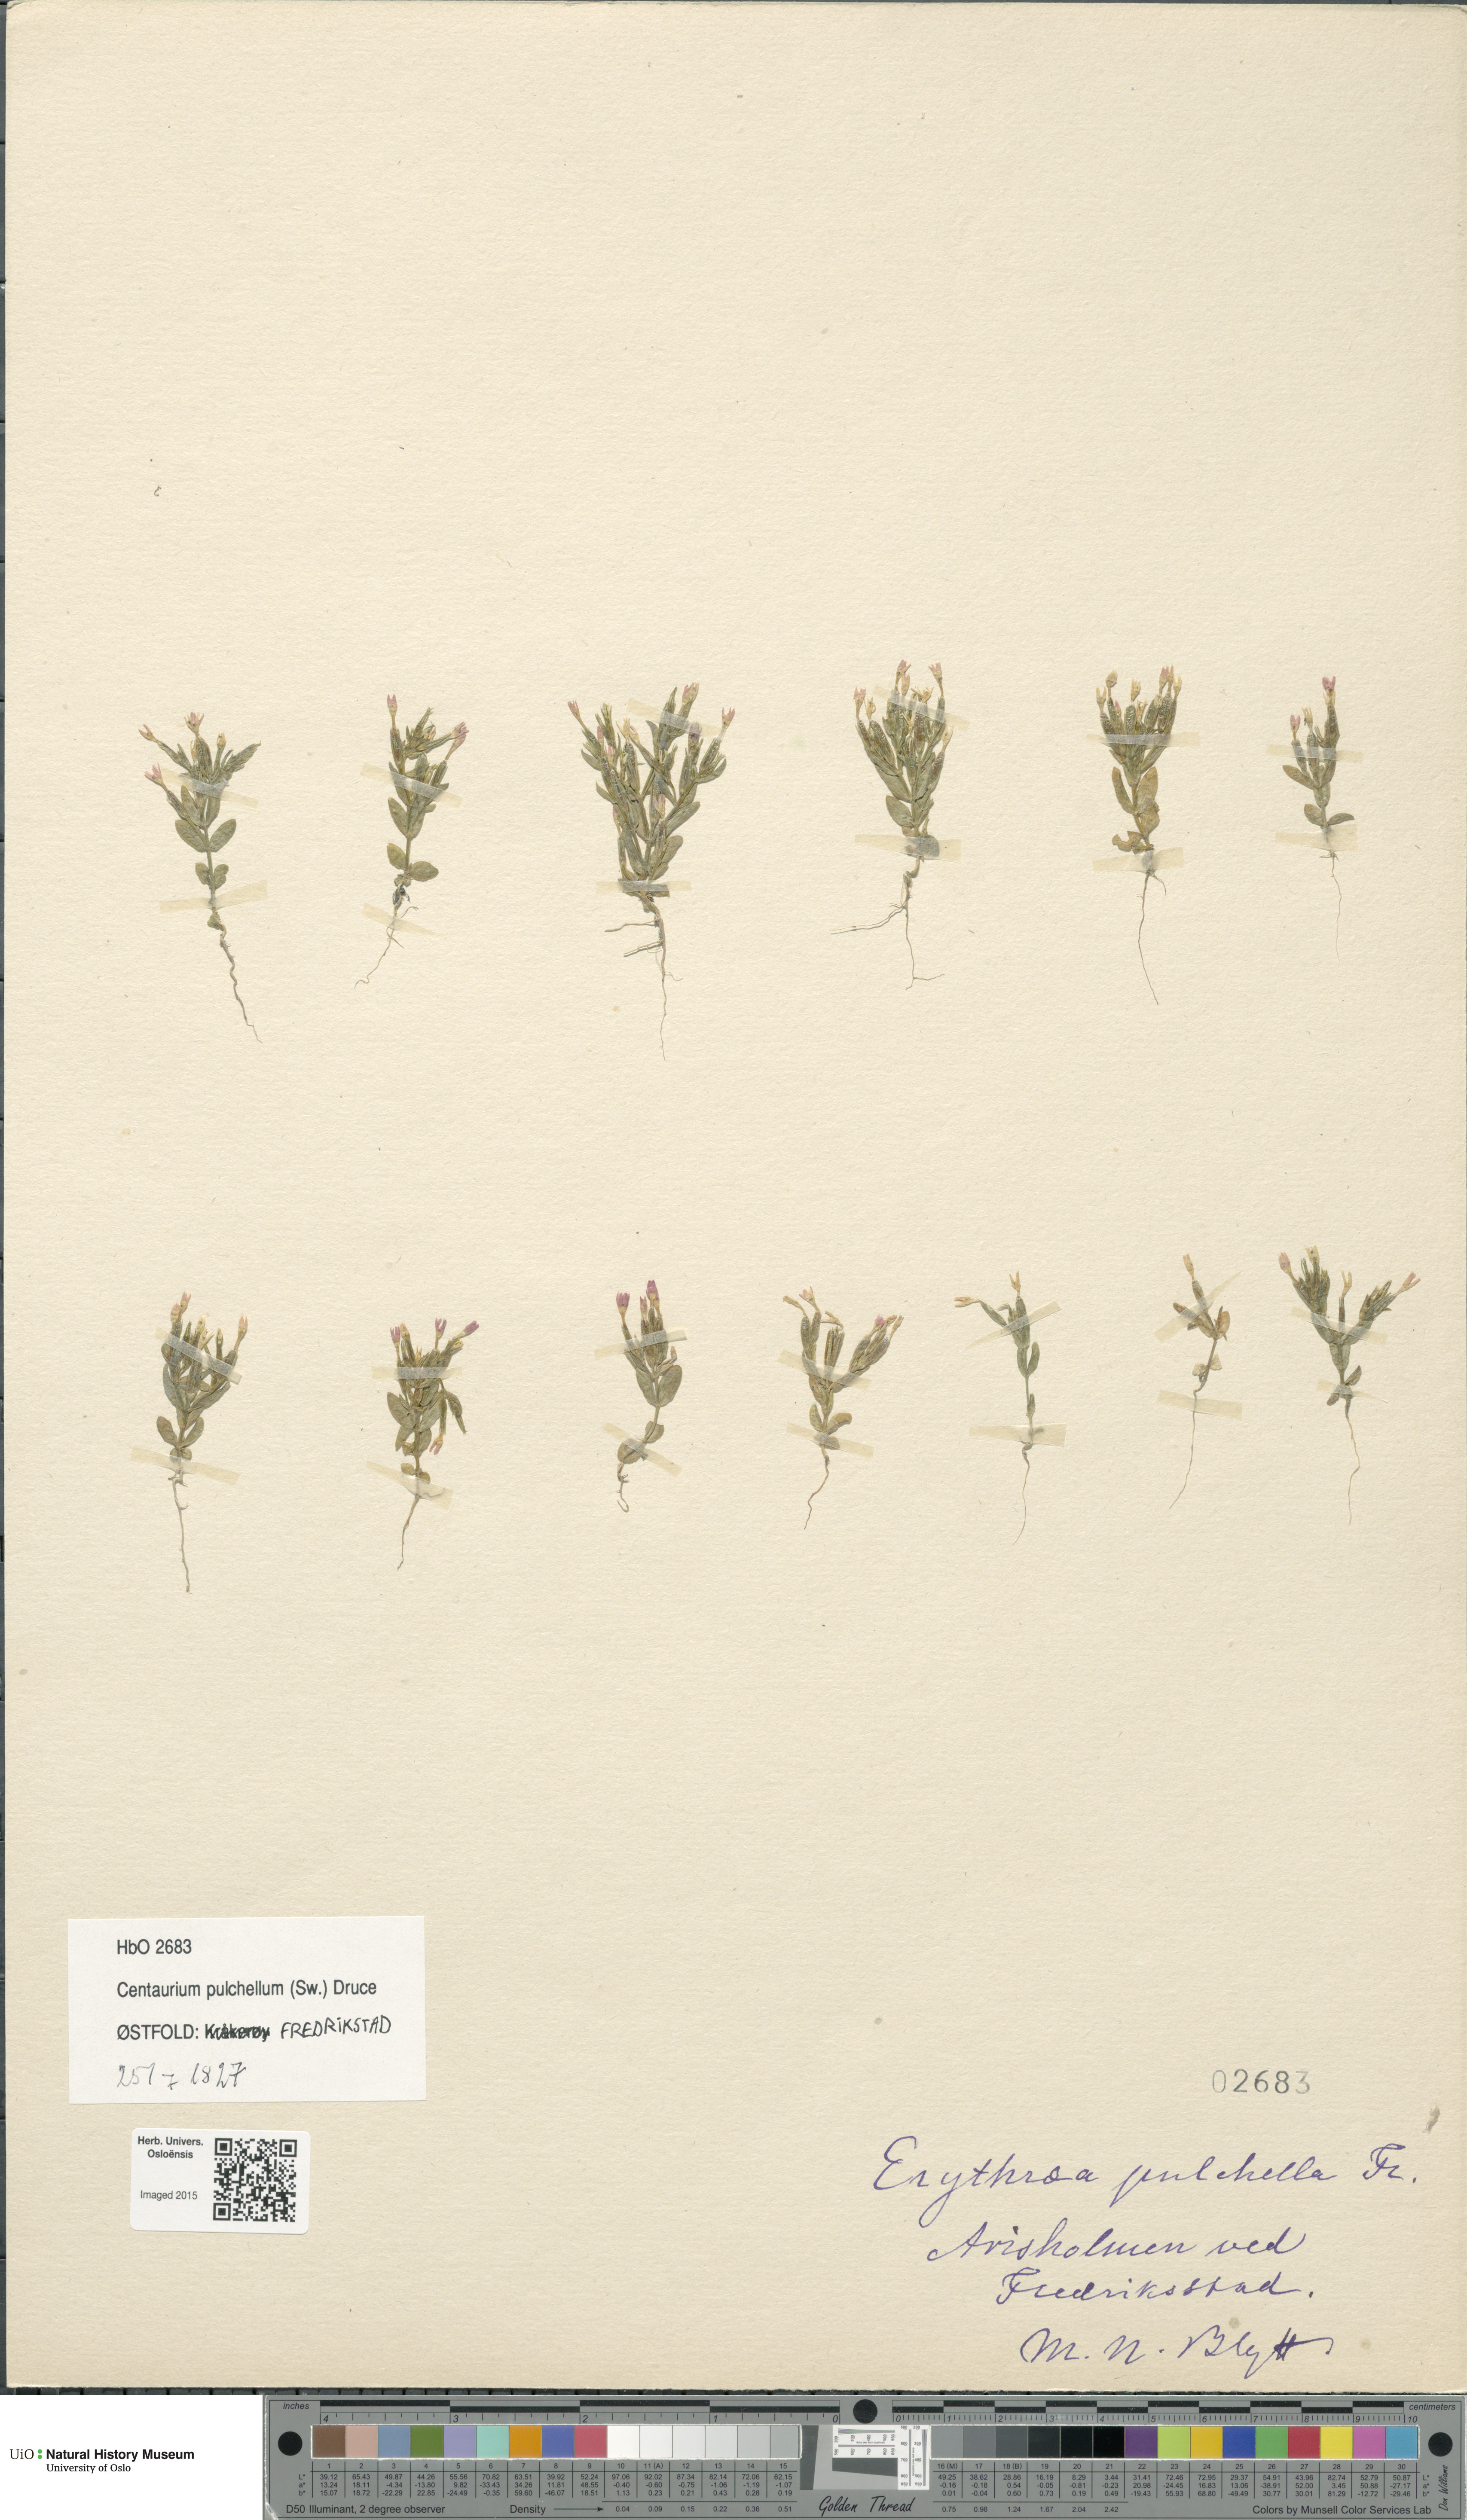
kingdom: Plantae
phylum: Tracheophyta
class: Magnoliopsida
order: Gentianales
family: Gentianaceae
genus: Centaurium
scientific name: Centaurium pulchellum
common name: Lesser centaury
